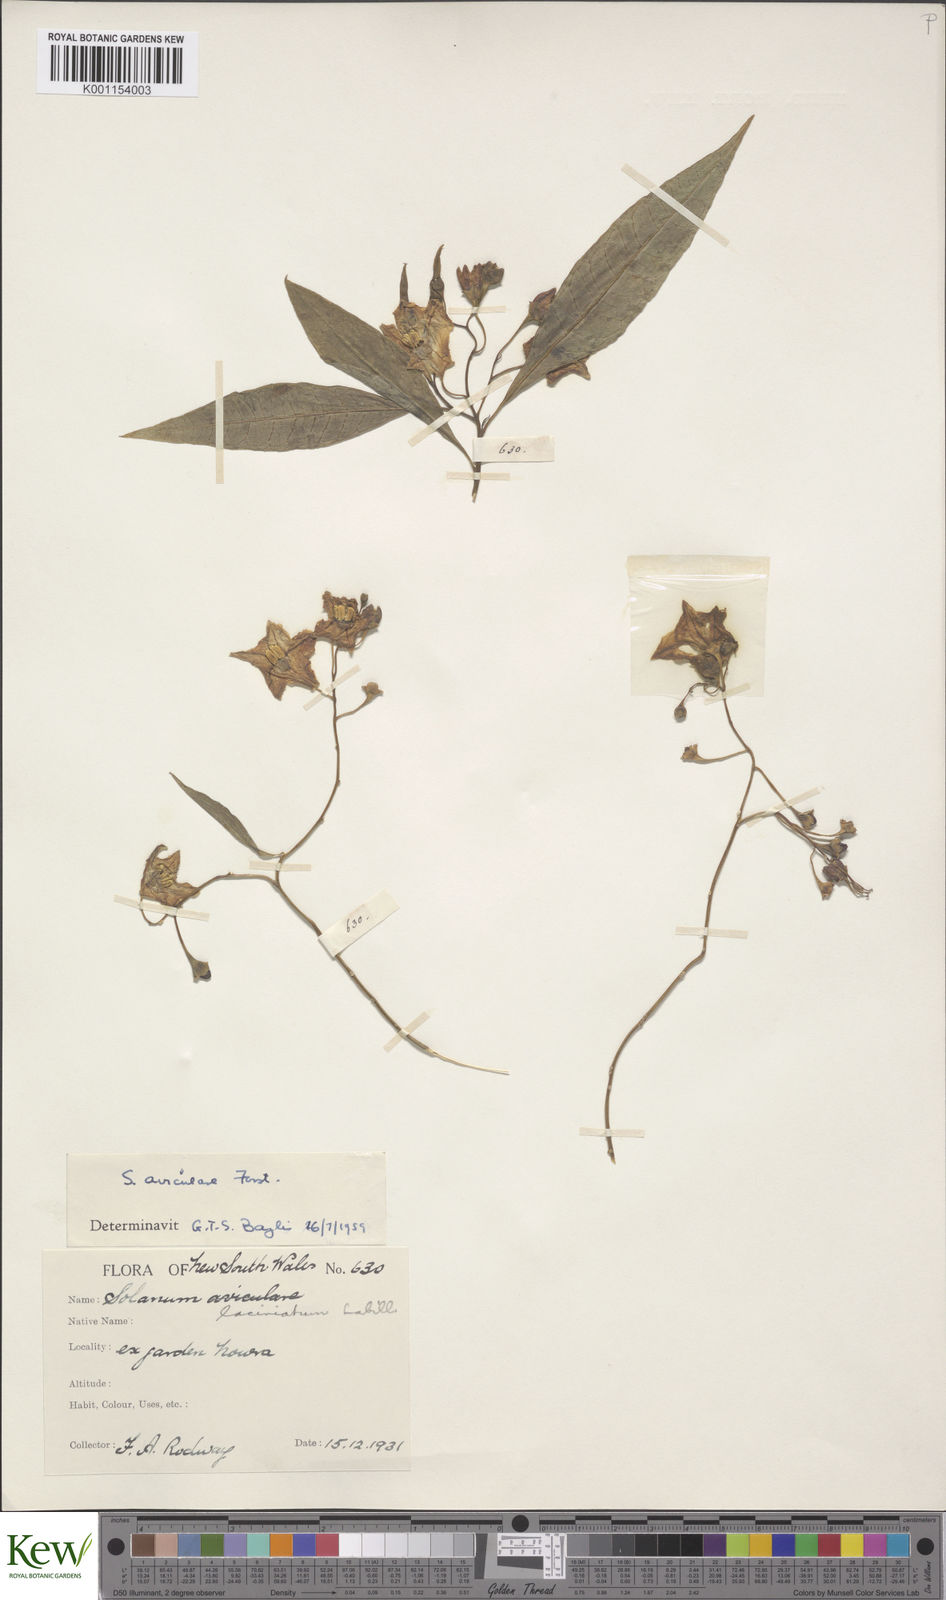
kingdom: Plantae
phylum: Tracheophyta
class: Magnoliopsida
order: Solanales
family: Solanaceae
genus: Solanum
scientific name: Solanum aviculare
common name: New zealand nightshade
